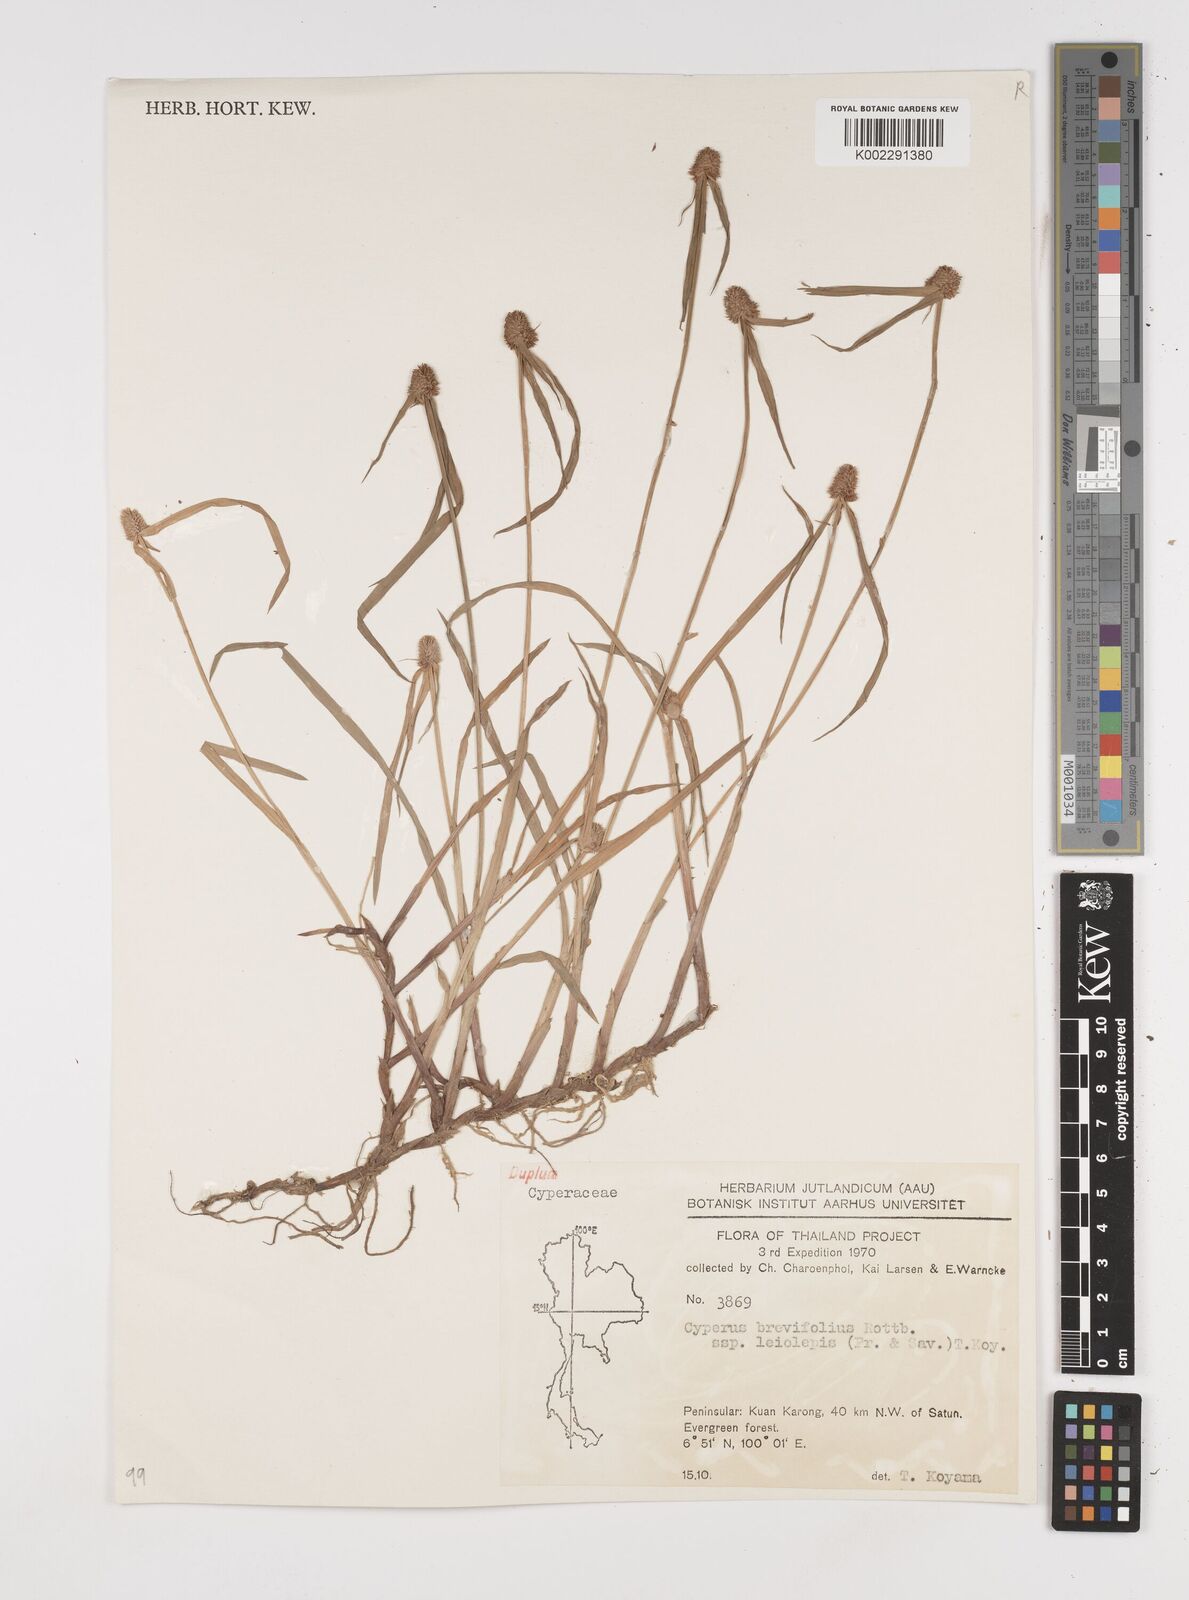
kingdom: Plantae
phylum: Tracheophyta
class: Liliopsida
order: Poales
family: Cyperaceae
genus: Cyperus
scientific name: Cyperus brevifolius
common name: Globe kyllinga
